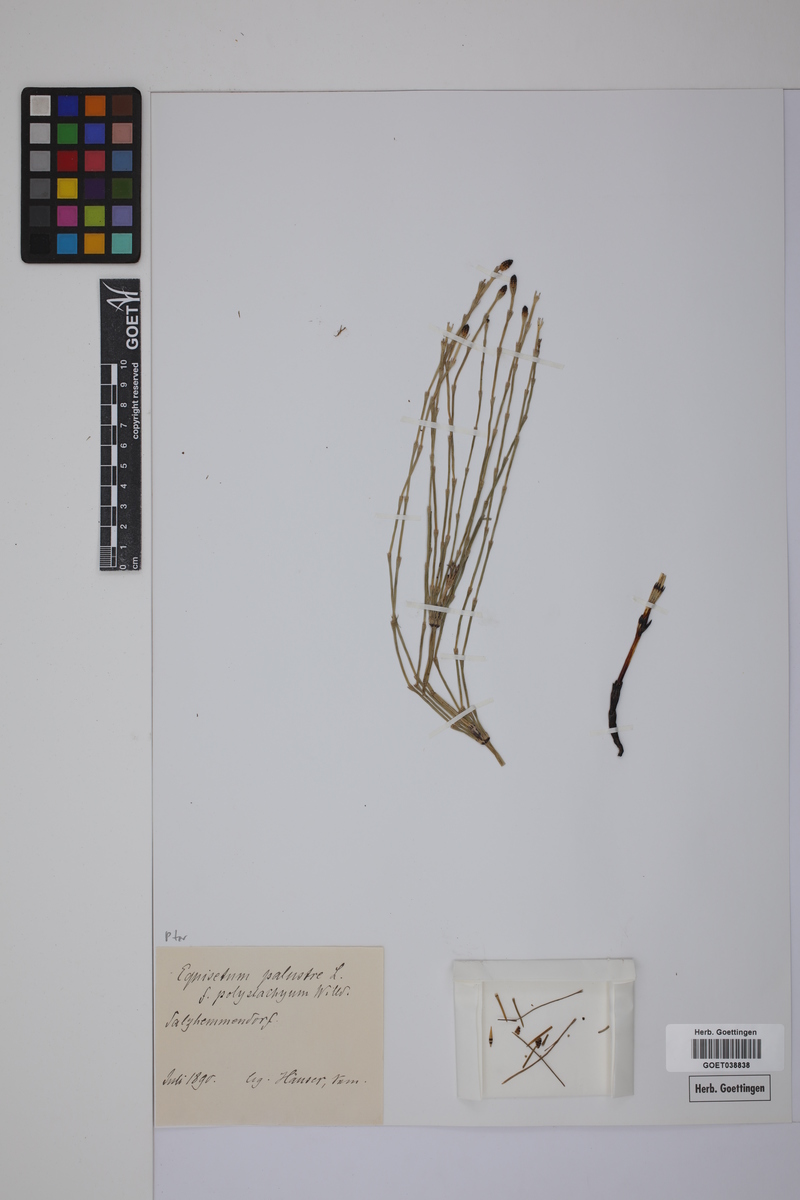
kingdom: Plantae
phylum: Tracheophyta
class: Polypodiopsida
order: Equisetales
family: Equisetaceae
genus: Equisetum
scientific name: Equisetum palustre
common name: Marsh horsetail
